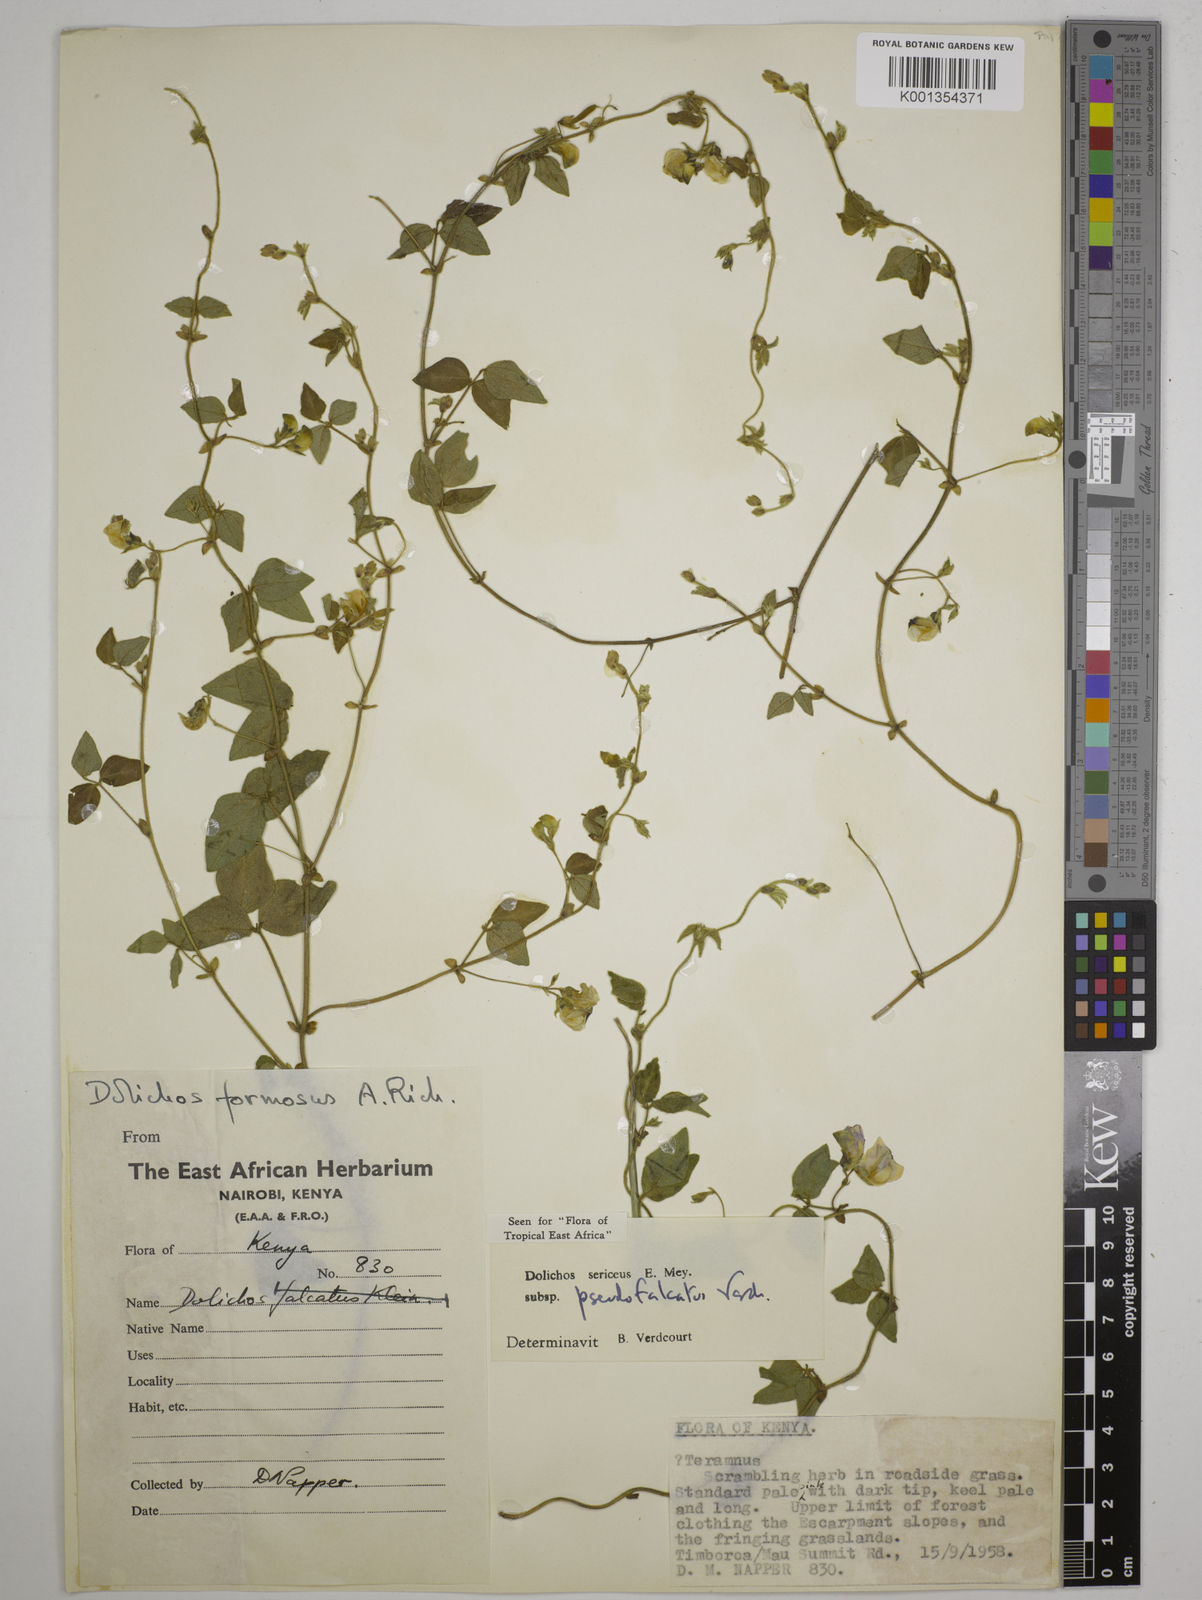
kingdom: Plantae
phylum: Tracheophyta
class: Magnoliopsida
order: Fabales
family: Fabaceae
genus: Dolichos
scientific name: Dolichos
